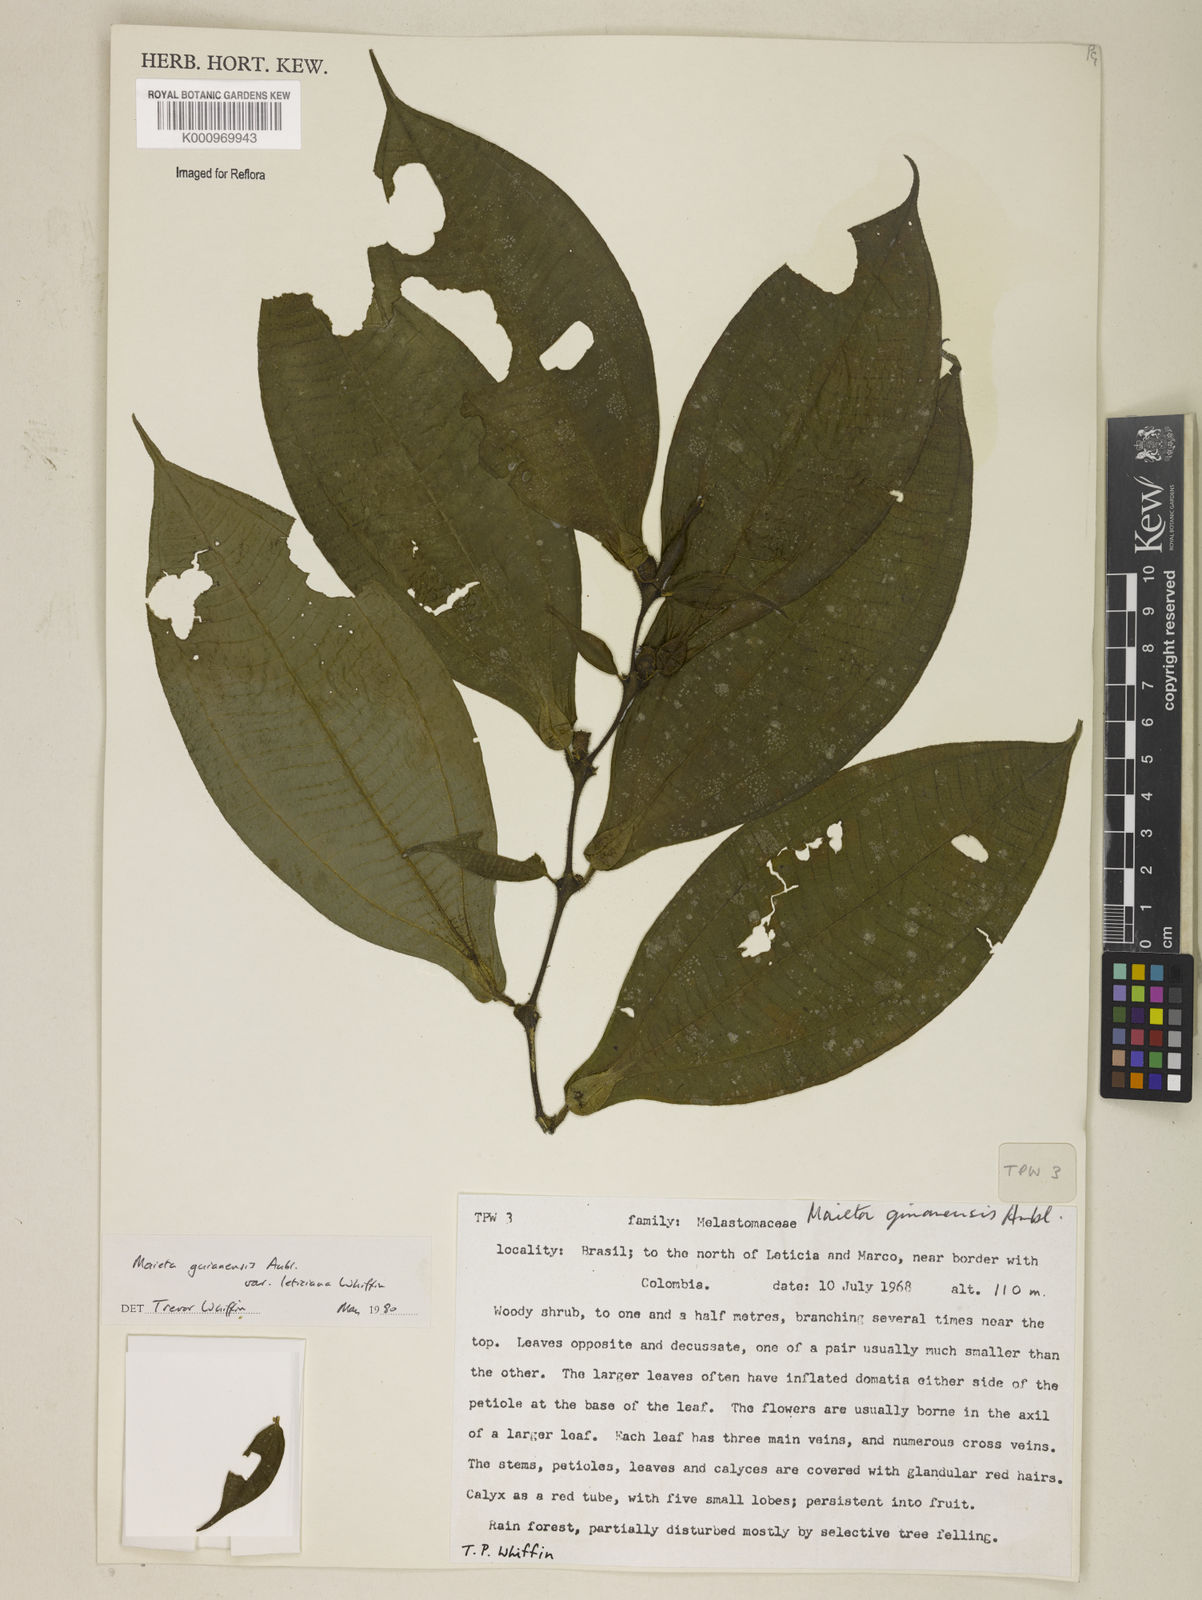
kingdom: Plantae
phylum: Tracheophyta
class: Magnoliopsida
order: Myrtales
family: Melastomataceae
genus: Miconia
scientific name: Miconia mayeta
